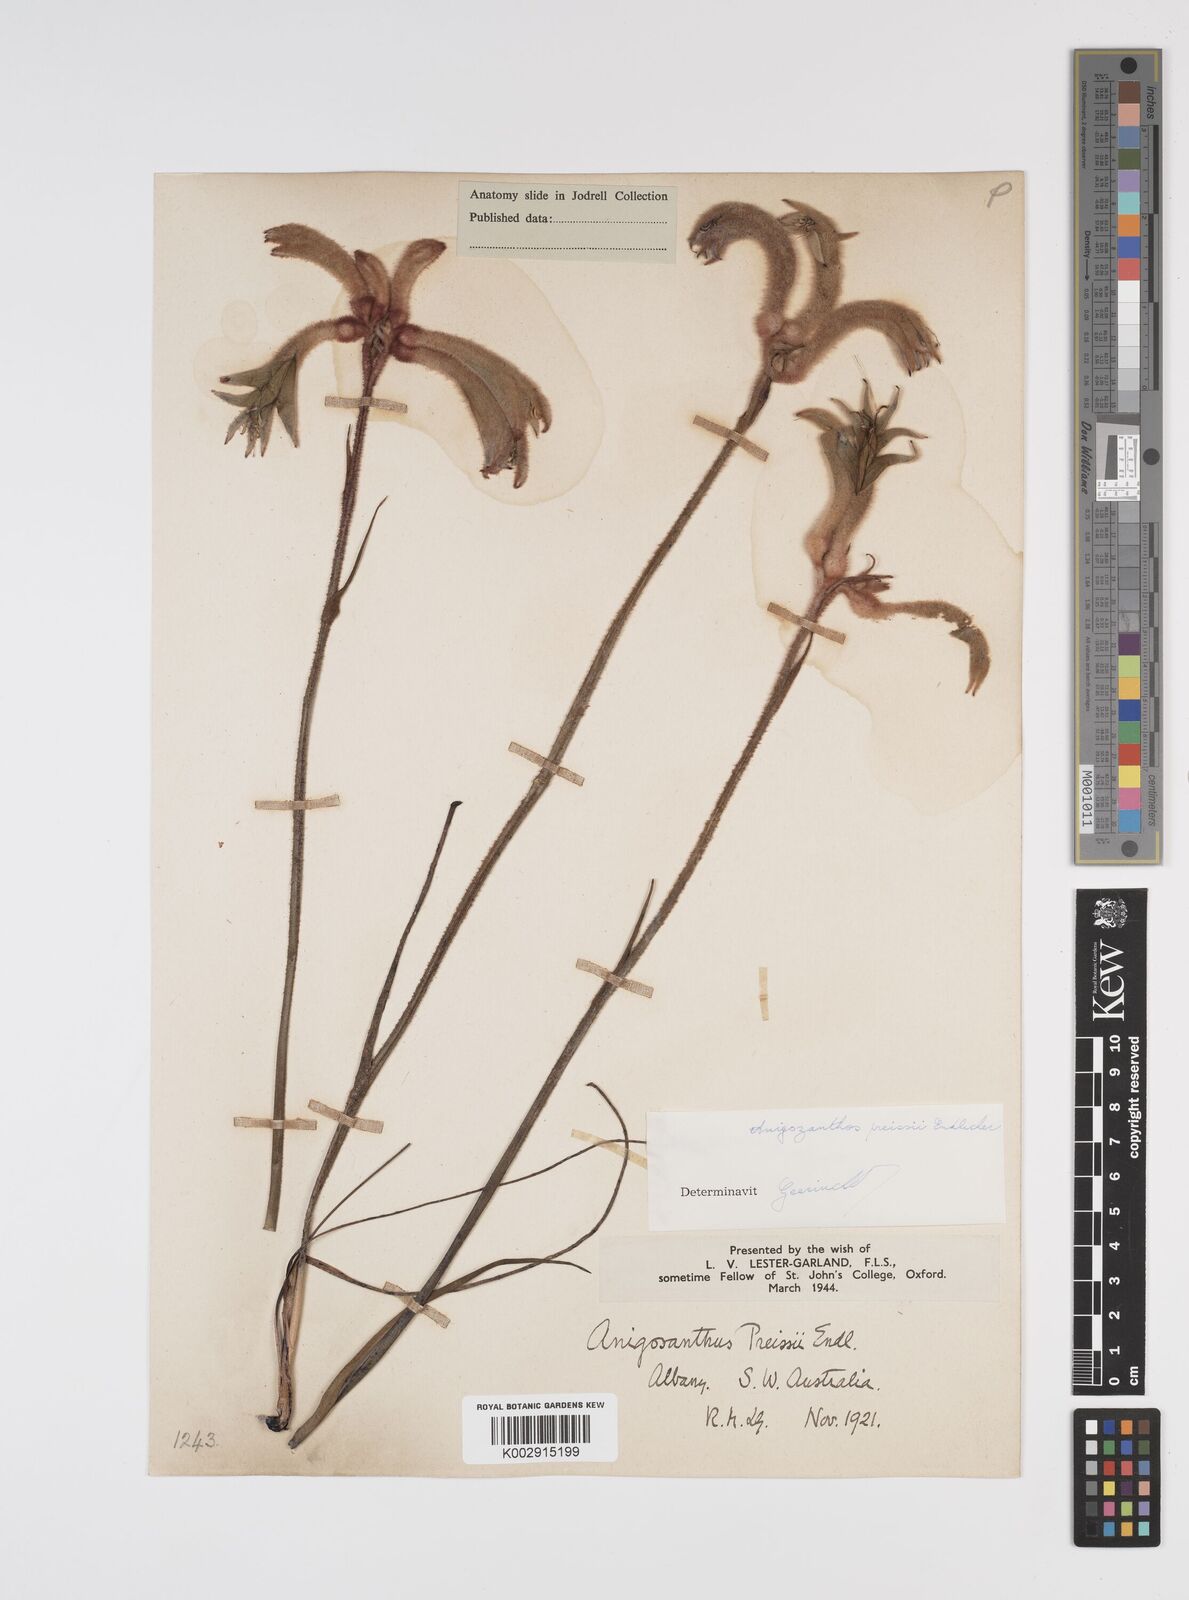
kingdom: Plantae
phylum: Tracheophyta
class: Liliopsida
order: Commelinales
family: Haemodoraceae
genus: Anigozanthos
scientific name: Anigozanthos preissii
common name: Albany cat's-paw
